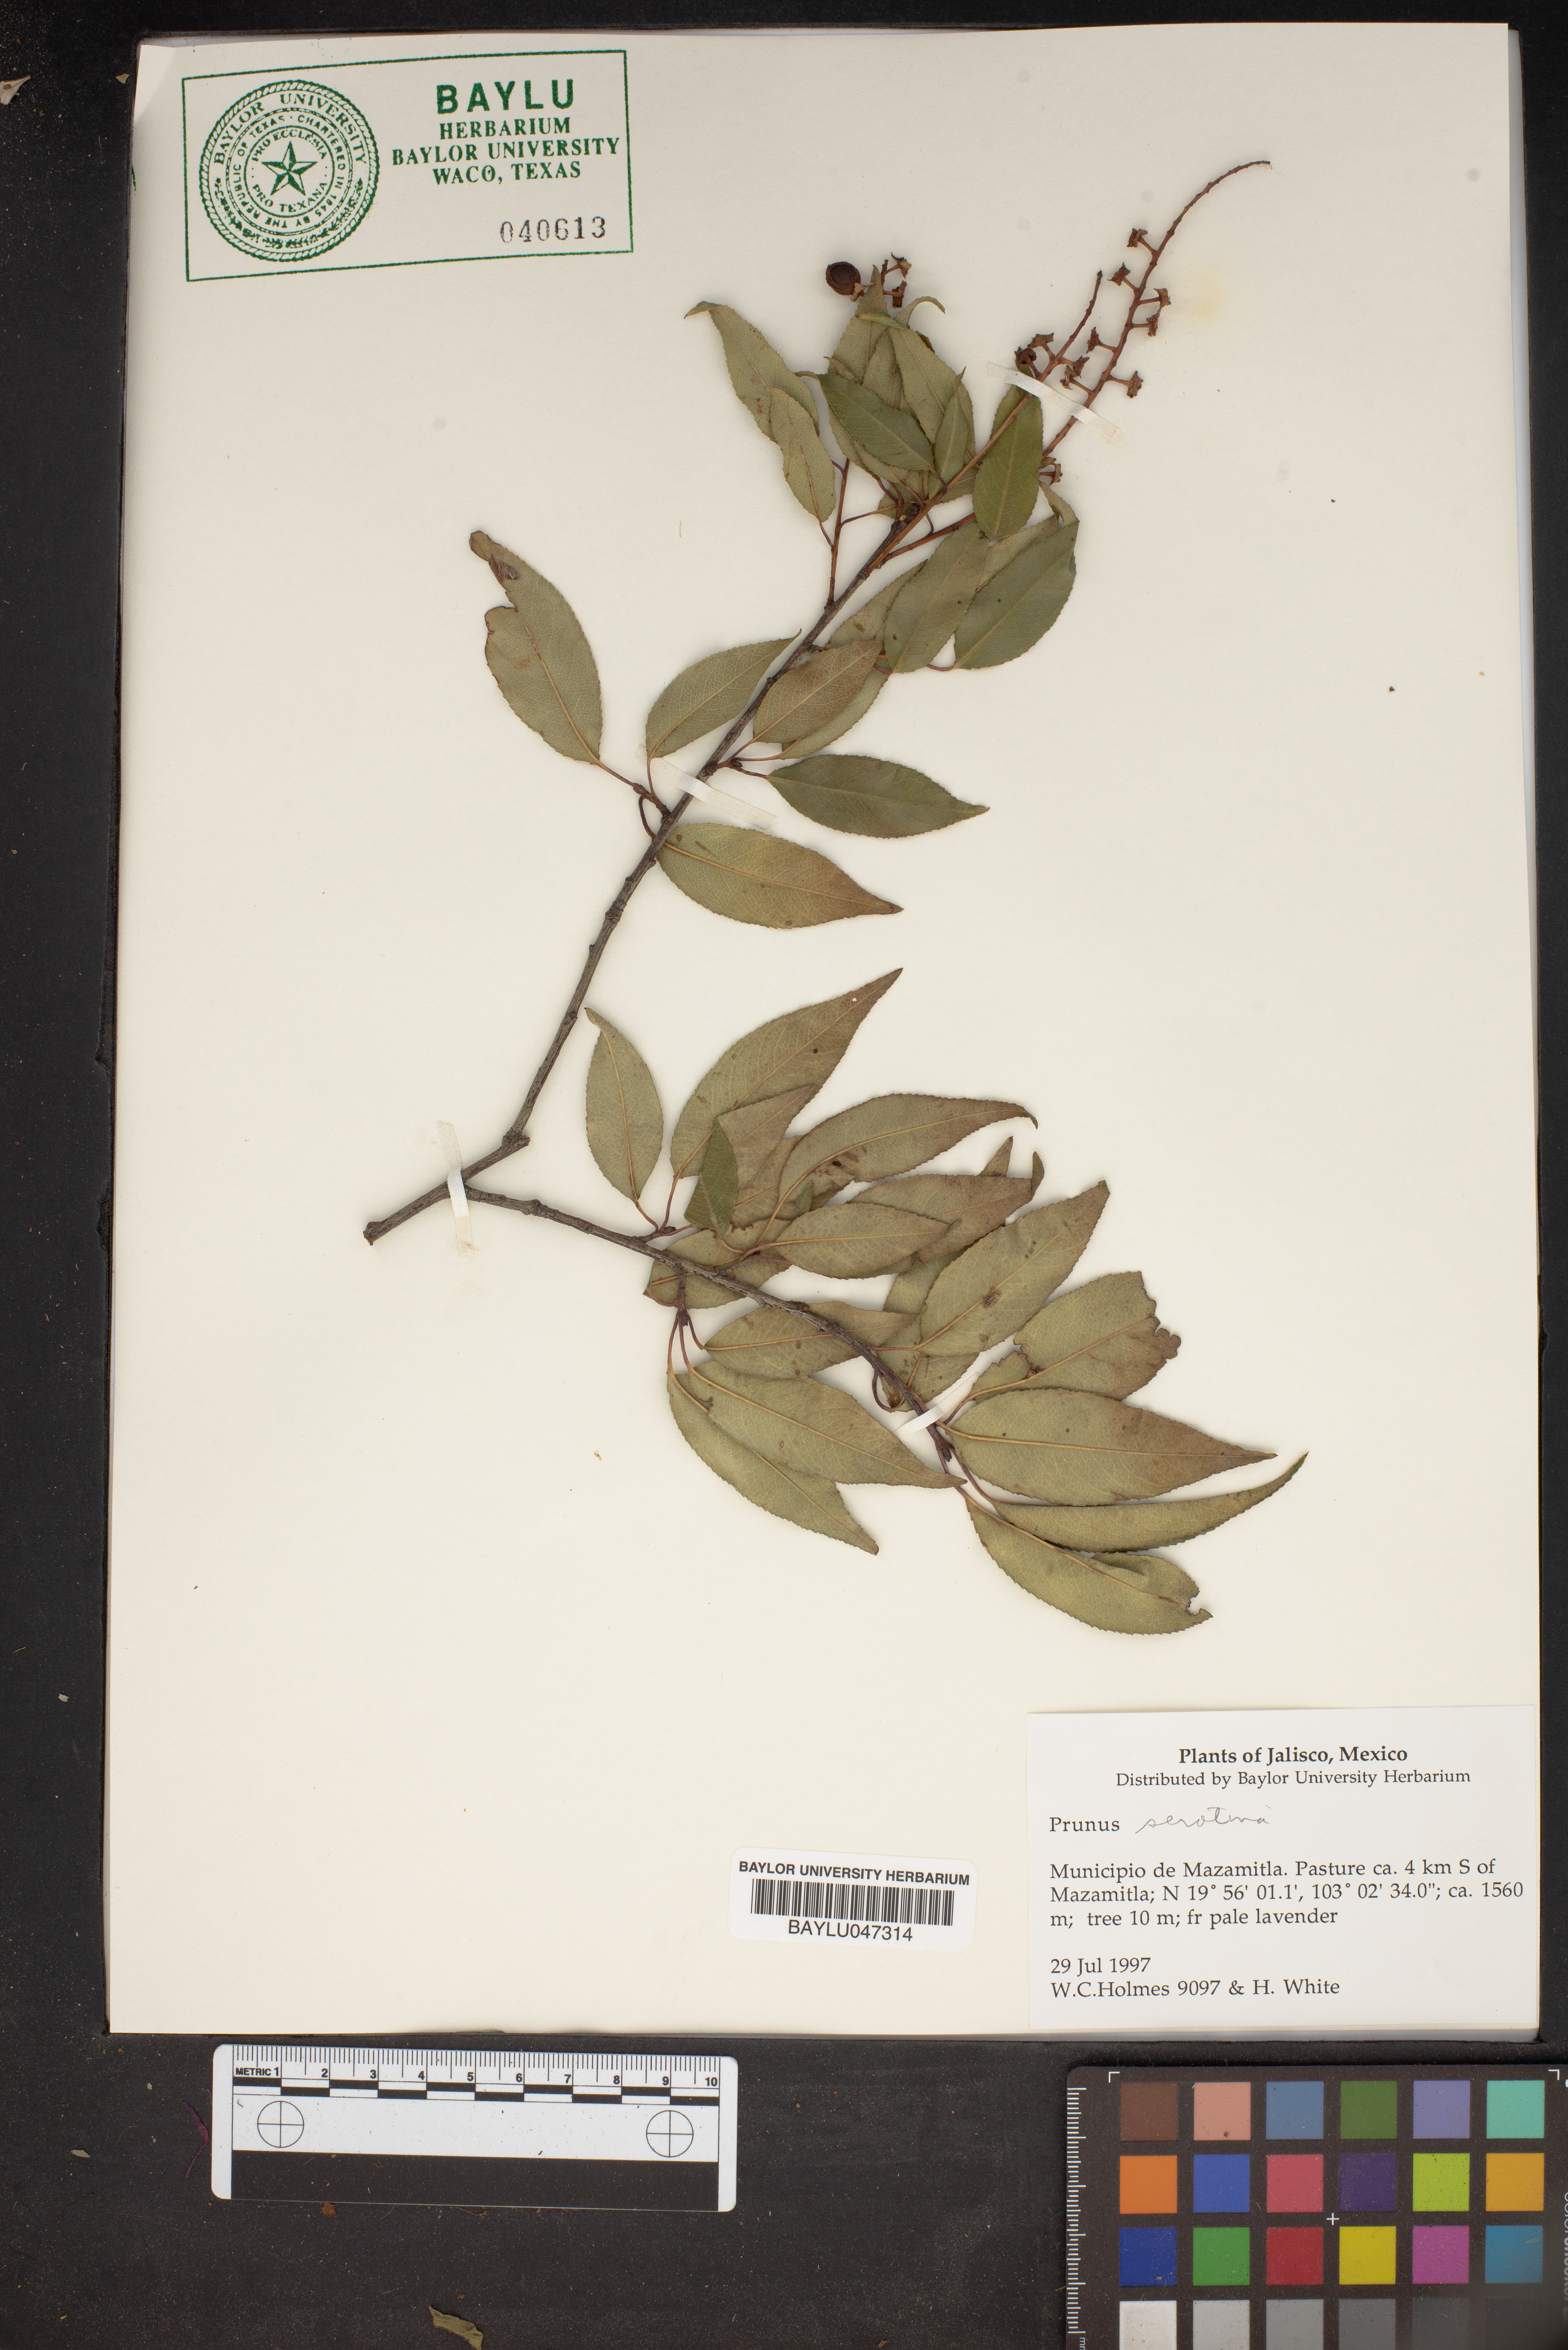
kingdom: Plantae
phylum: Tracheophyta
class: Magnoliopsida
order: Rosales
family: Rosaceae
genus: Prunus
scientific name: Prunus serotina
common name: Black cherry
